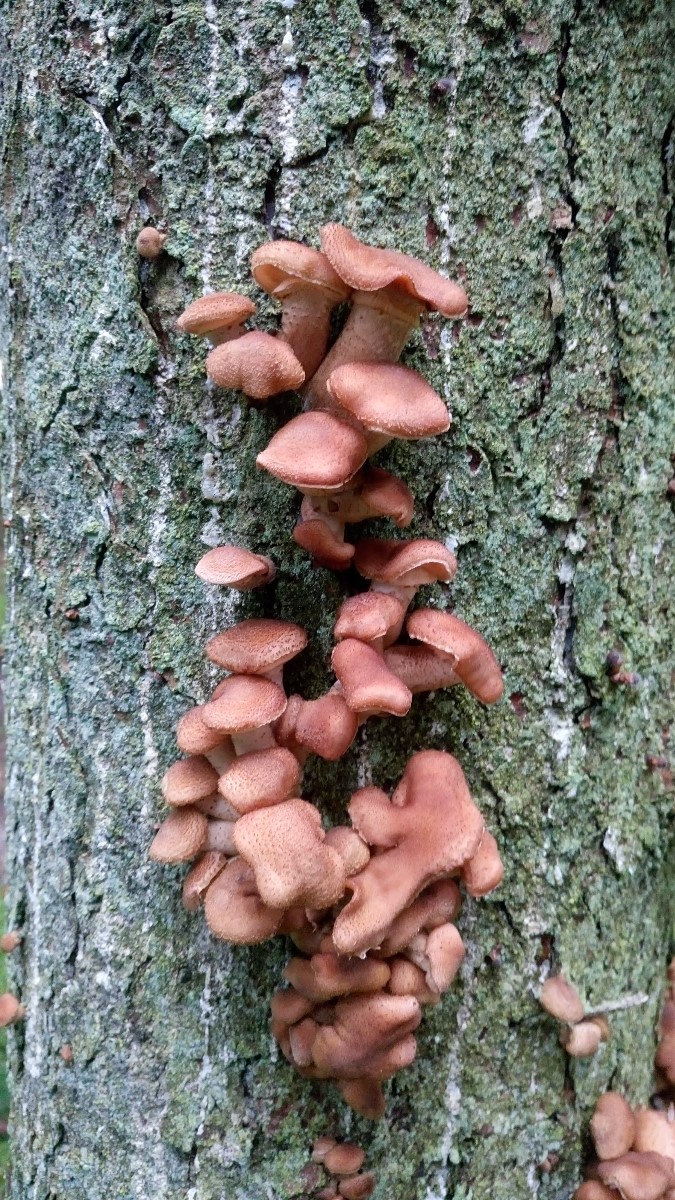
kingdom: Fungi
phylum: Basidiomycota
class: Agaricomycetes
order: Agaricales
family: Physalacriaceae
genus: Armillaria
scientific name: Armillaria ostoyae
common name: mørk honningsvamp
